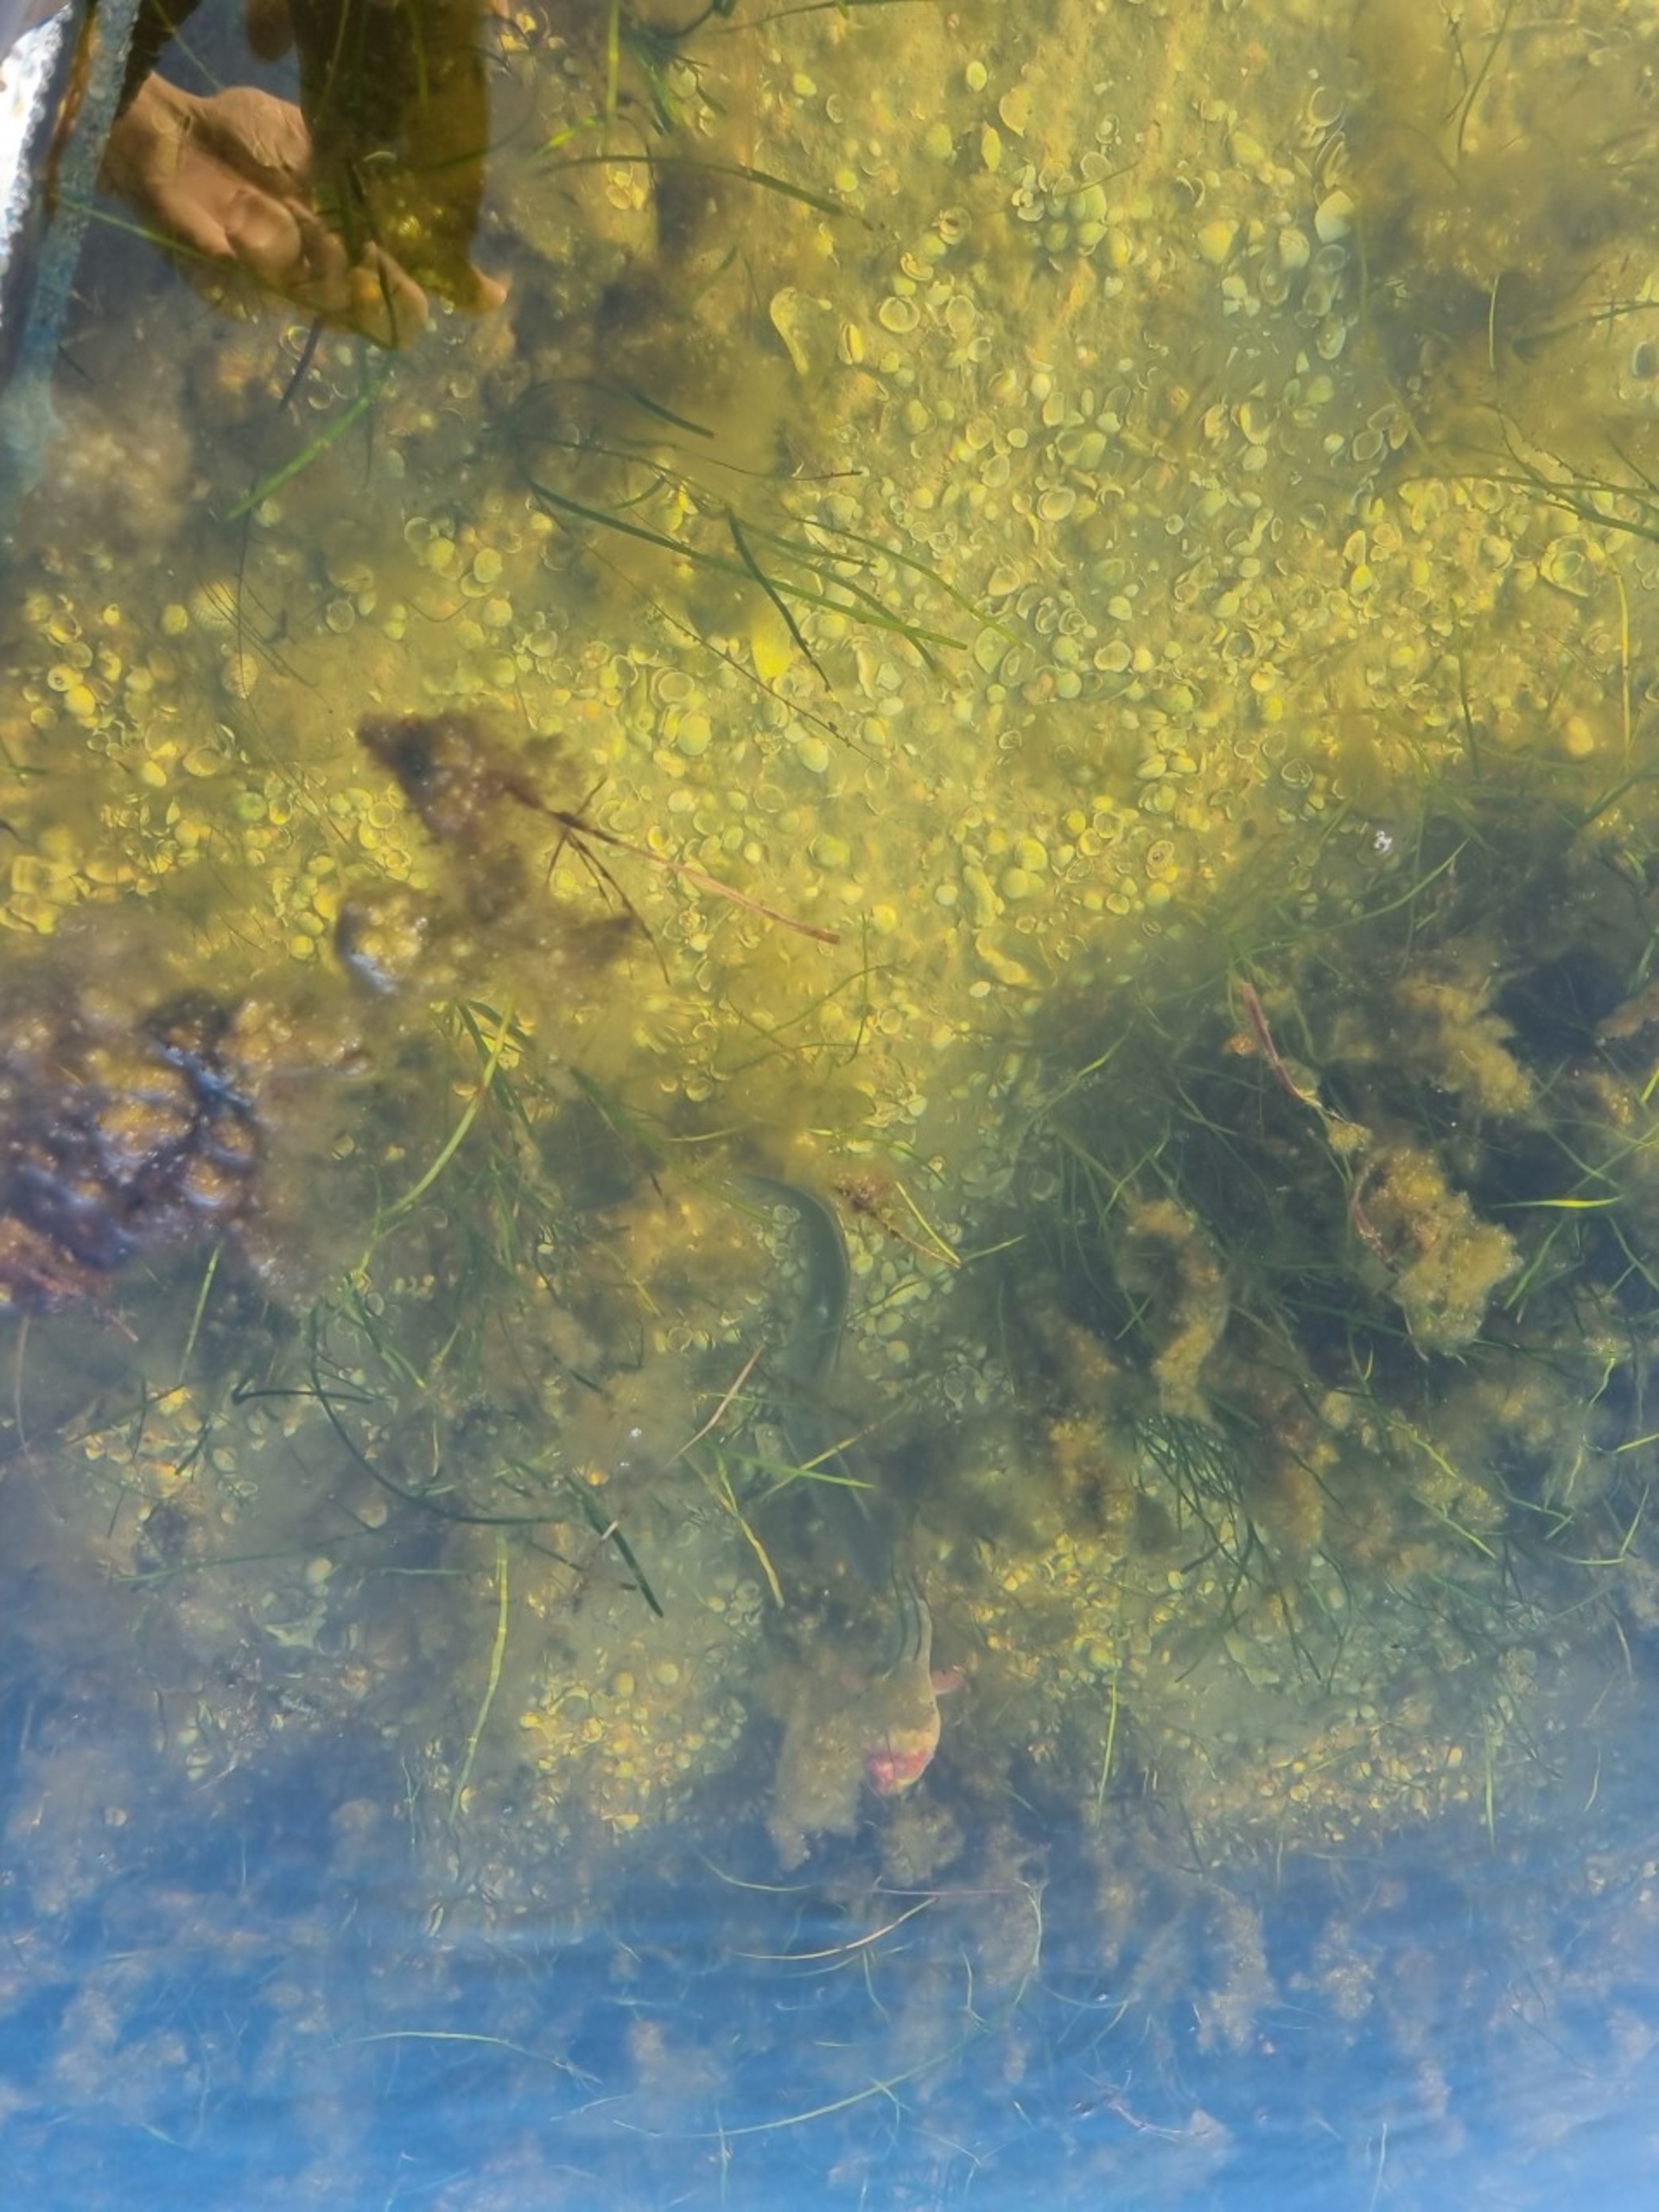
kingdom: Animalia
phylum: Chordata
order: Anguilliformes
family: Anguillidae
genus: Anguilla
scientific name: Anguilla anguilla
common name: Europæisk ål
